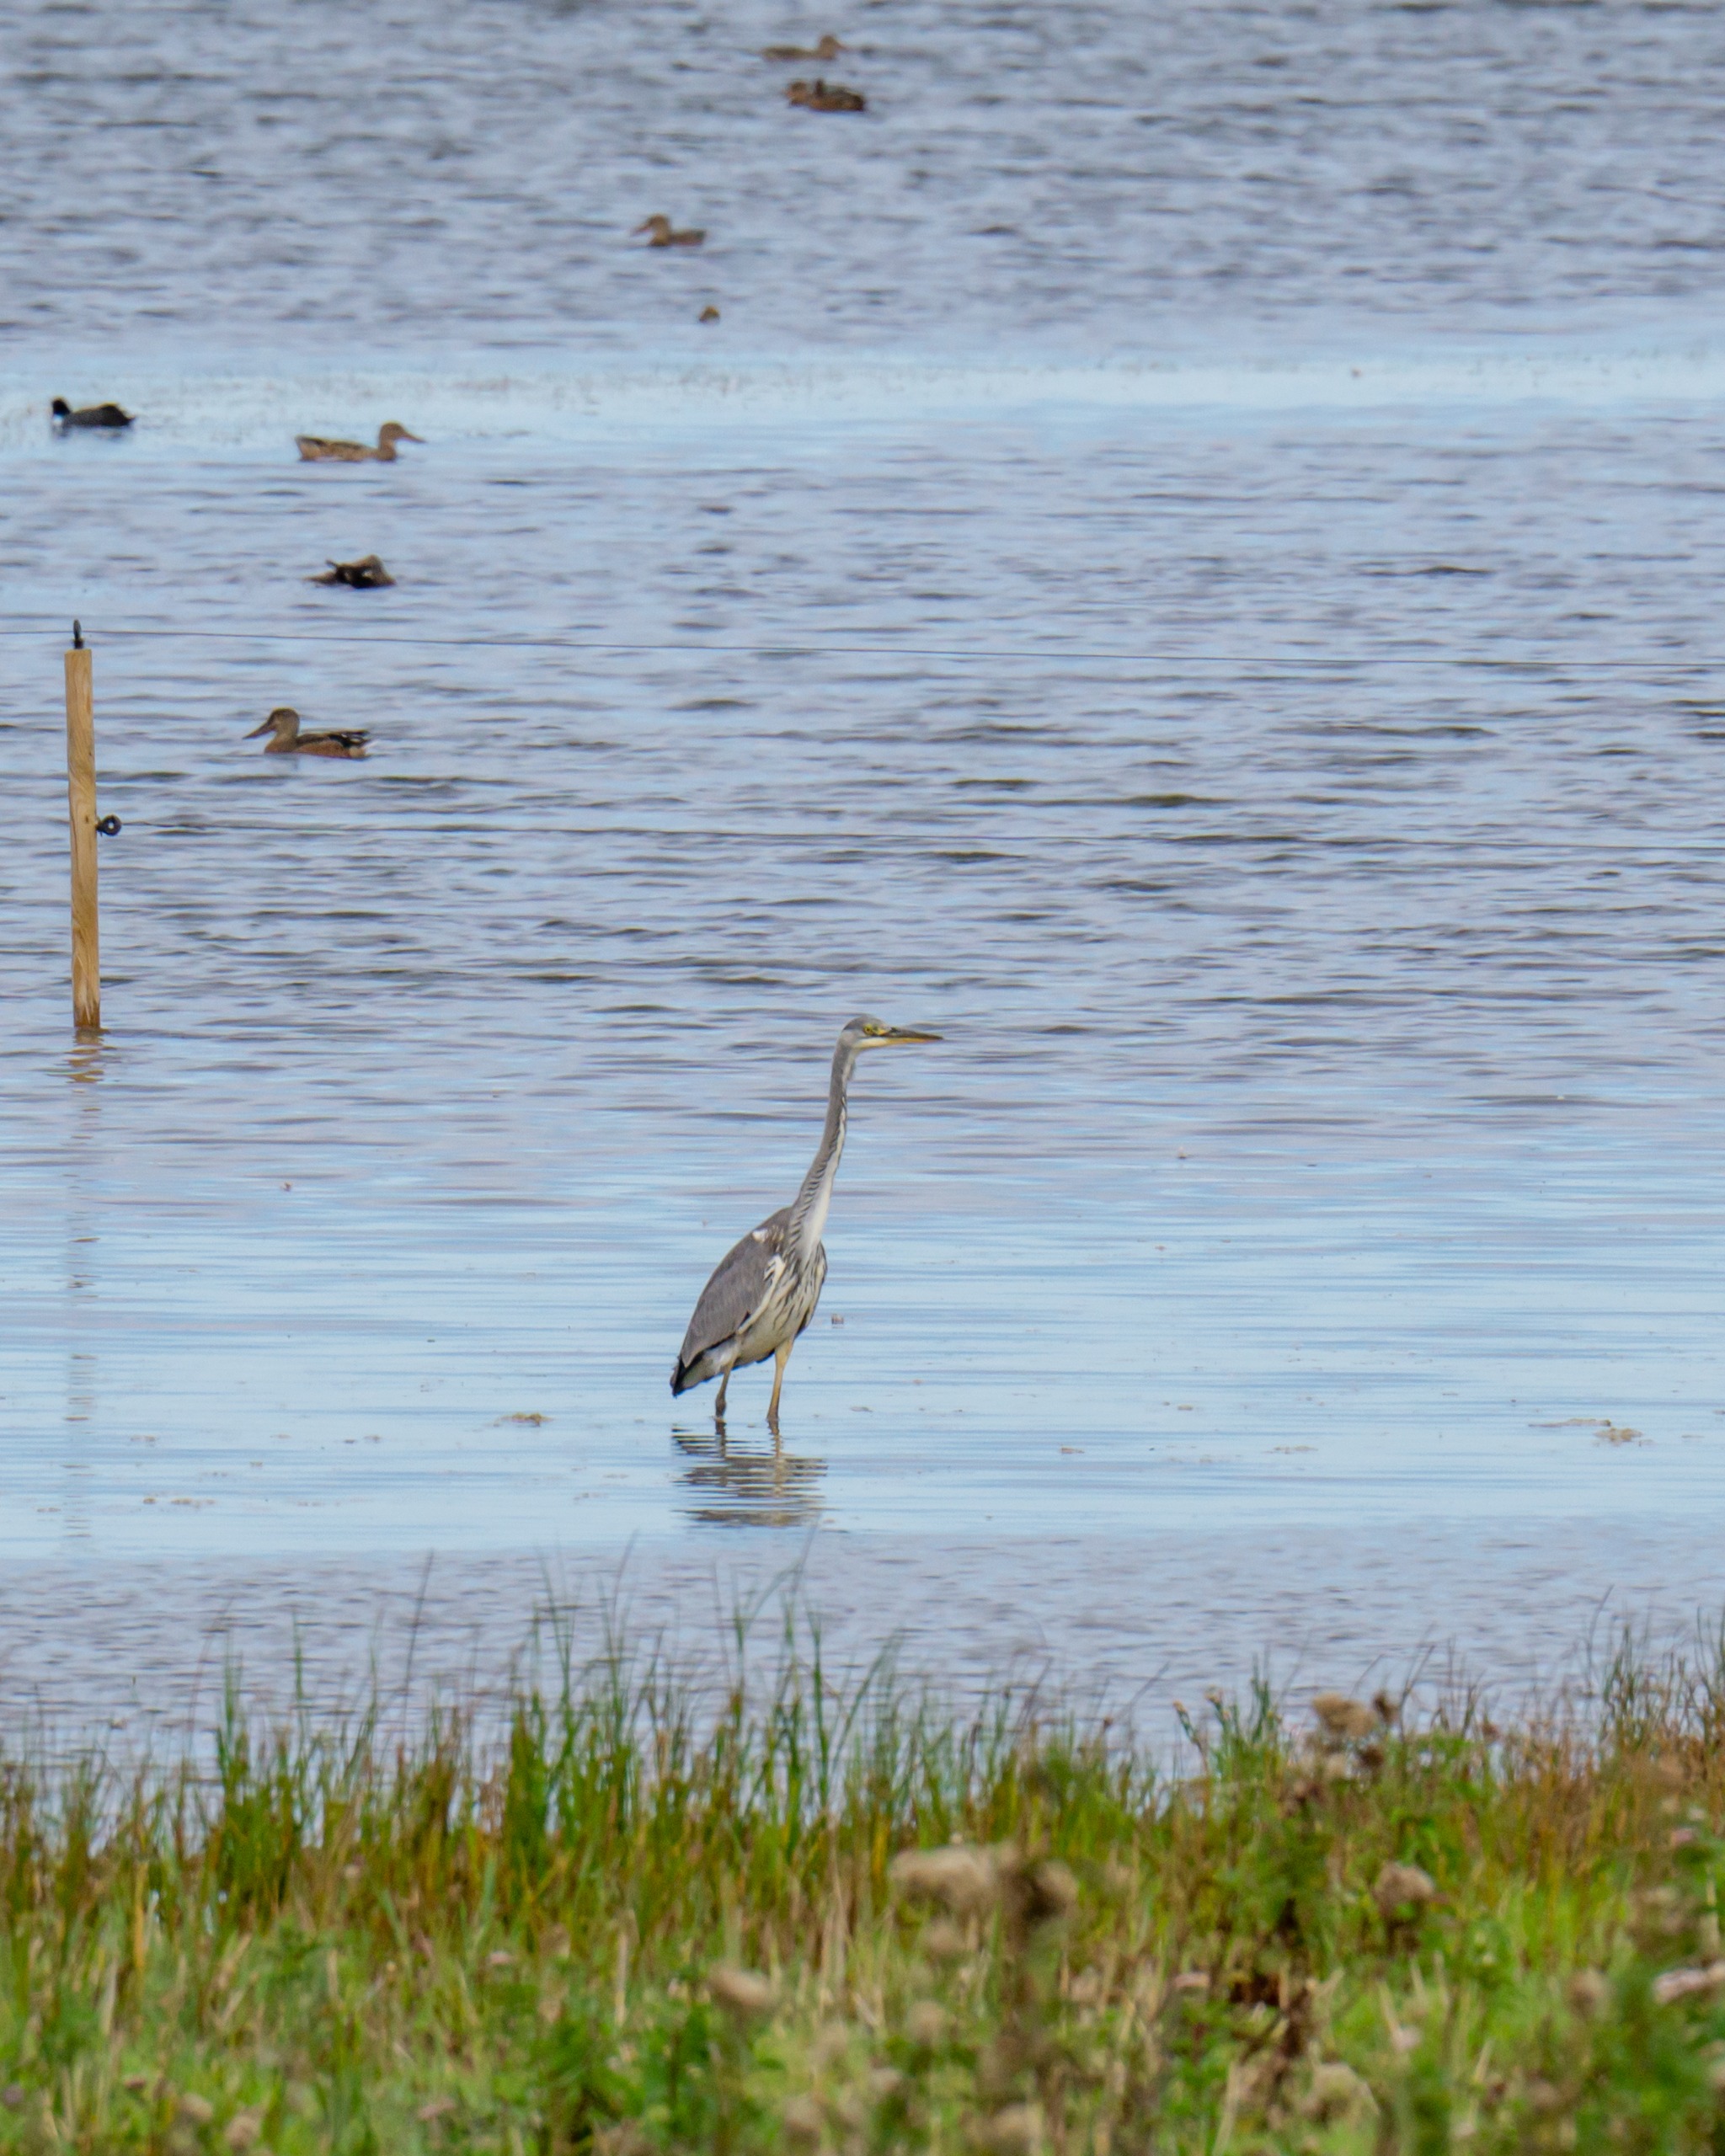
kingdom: Animalia
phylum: Chordata
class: Aves
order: Pelecaniformes
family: Ardeidae
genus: Ardea
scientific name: Ardea cinerea
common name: Fiskehejre
